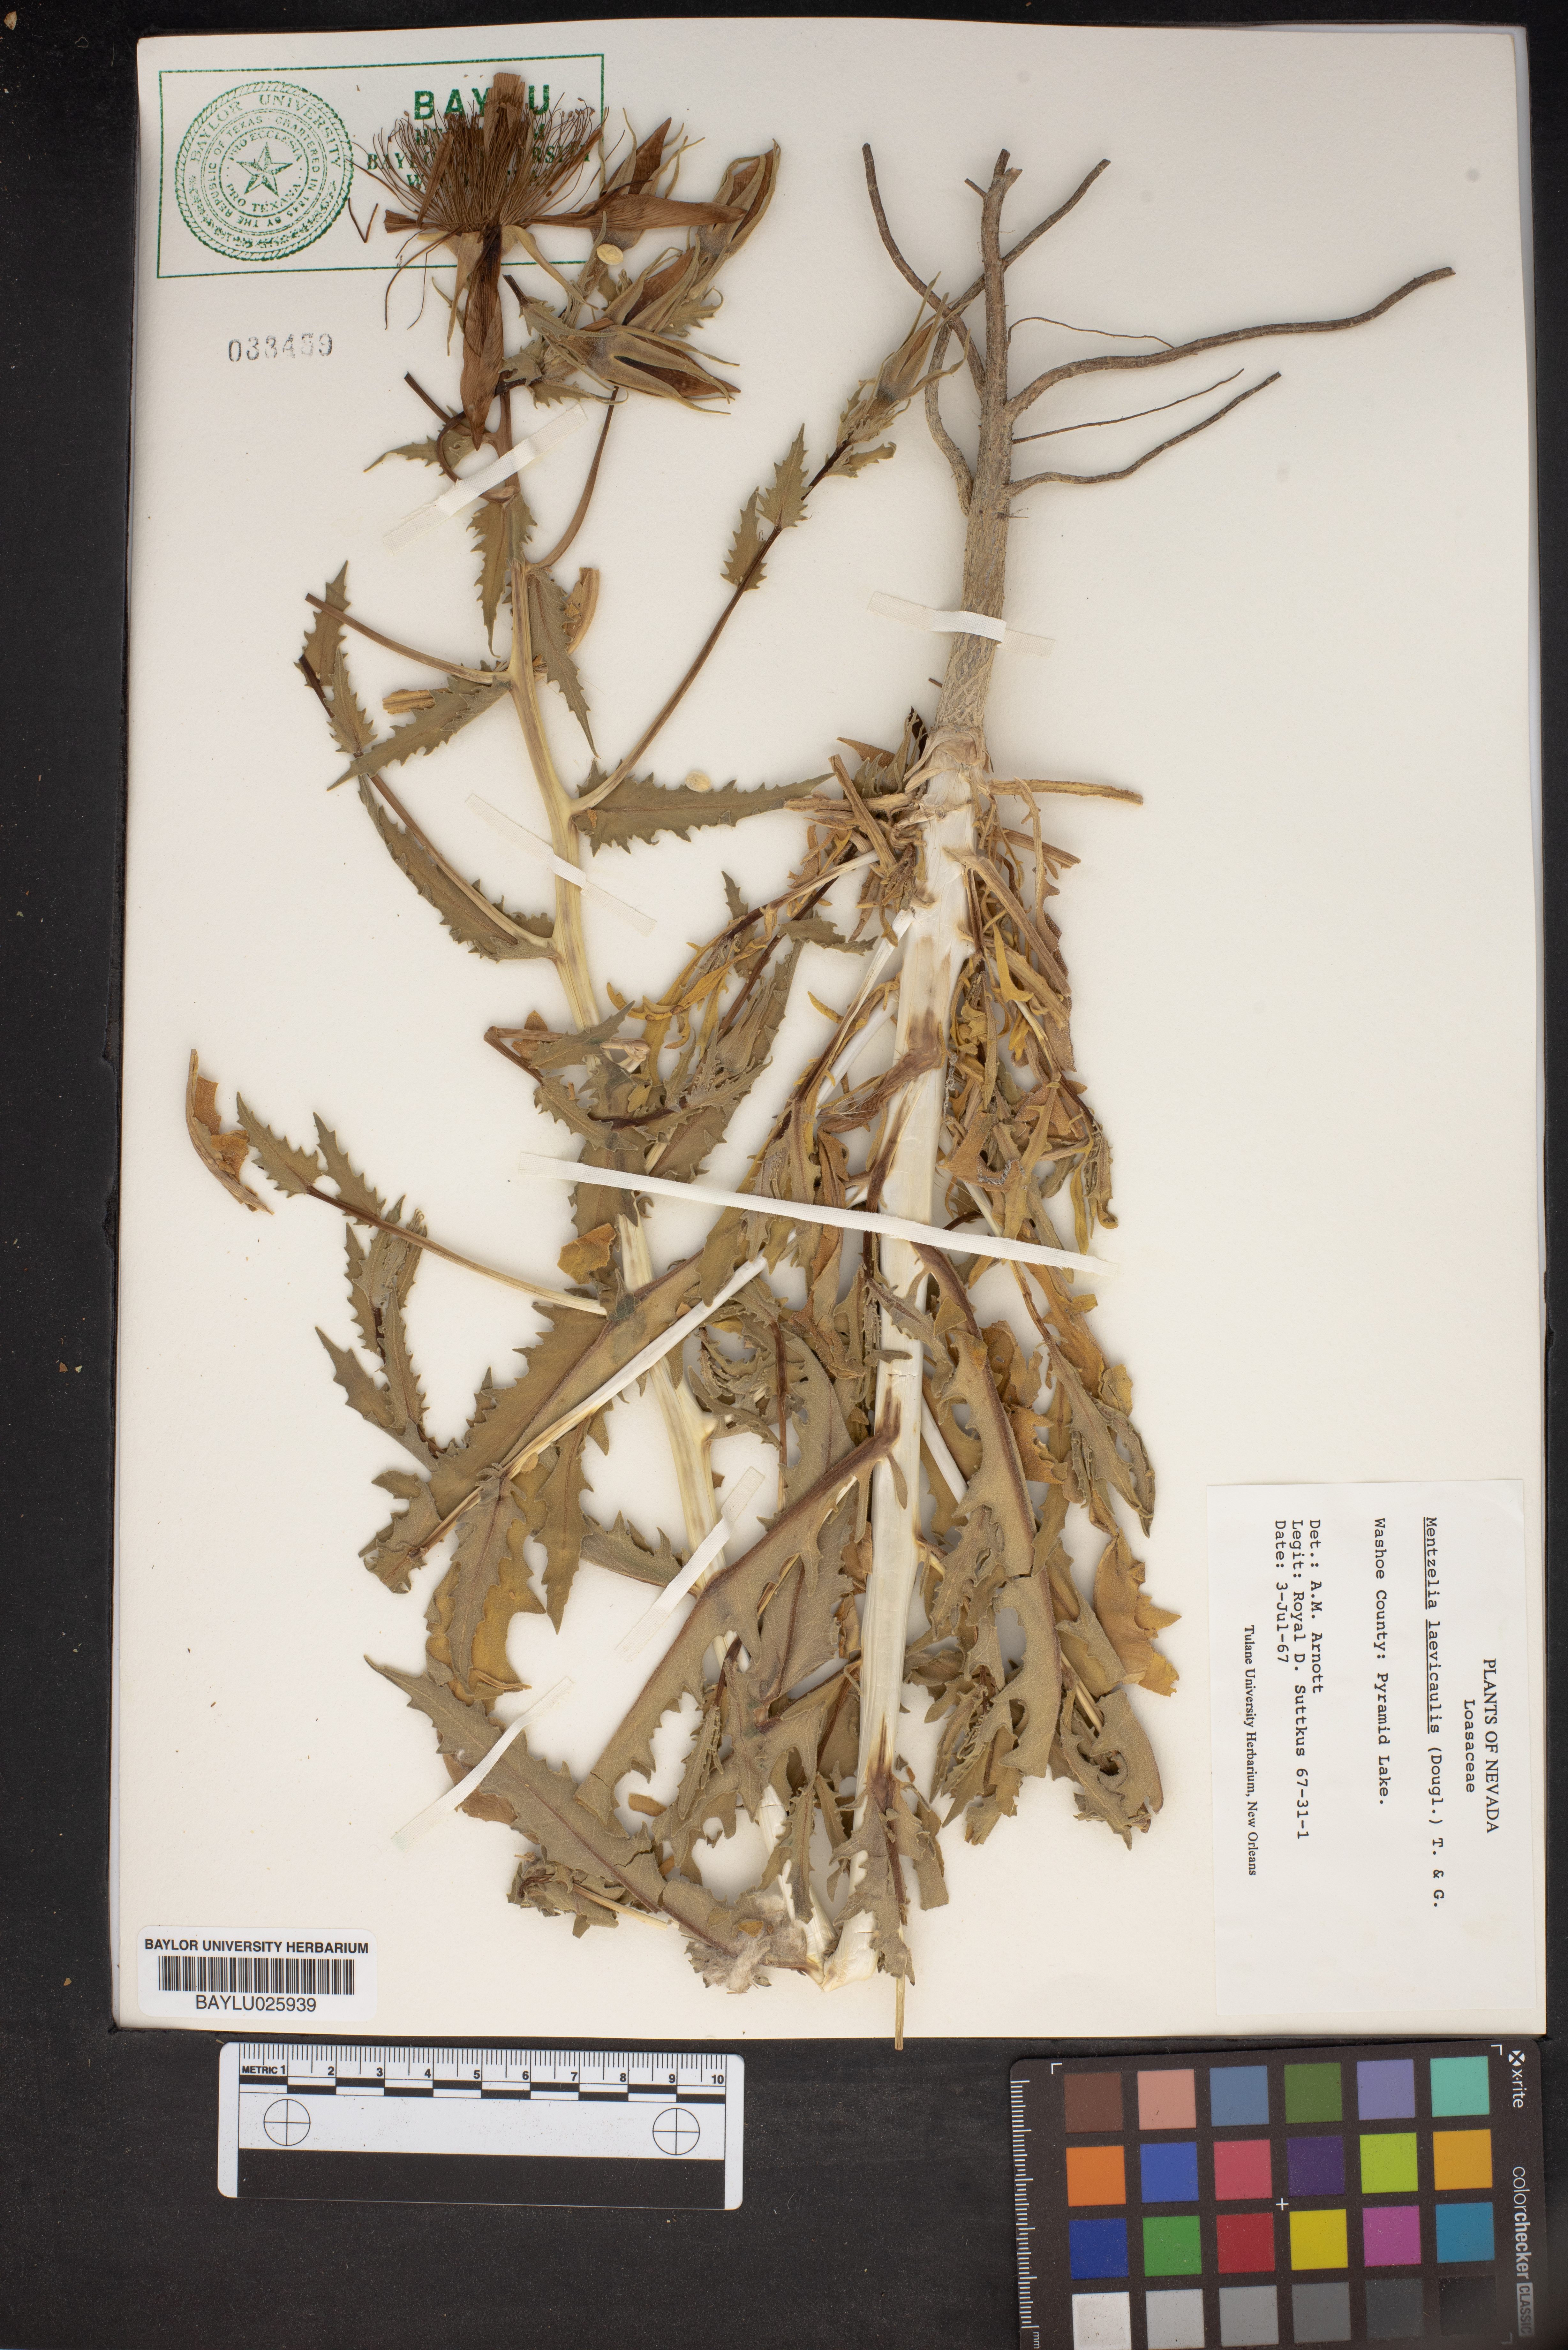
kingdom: Plantae
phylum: Tracheophyta
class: Magnoliopsida
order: Cornales
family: Loasaceae
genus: Mentzelia
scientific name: Mentzelia laevicaulis
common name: Smooth-stem blazingstar
